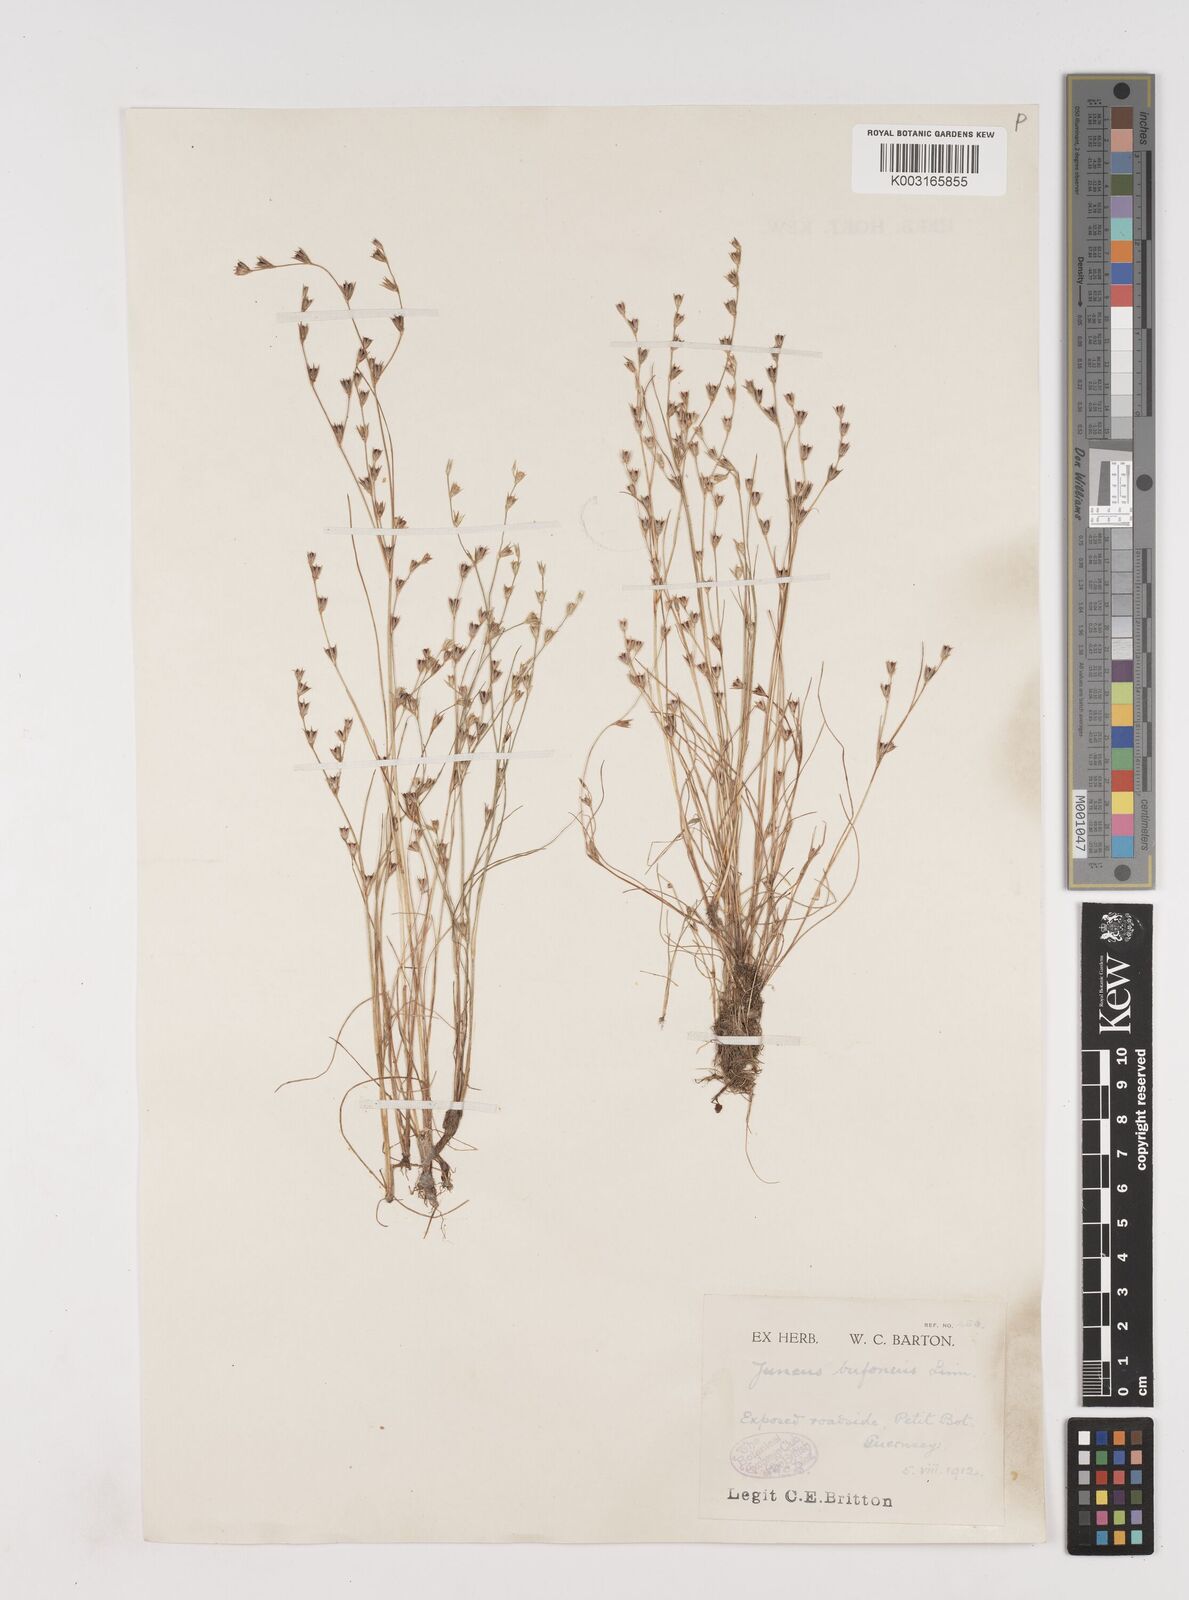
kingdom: Plantae
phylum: Tracheophyta
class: Liliopsida
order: Poales
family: Juncaceae
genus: Juncus
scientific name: Juncus bufonius
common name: Toad rush
